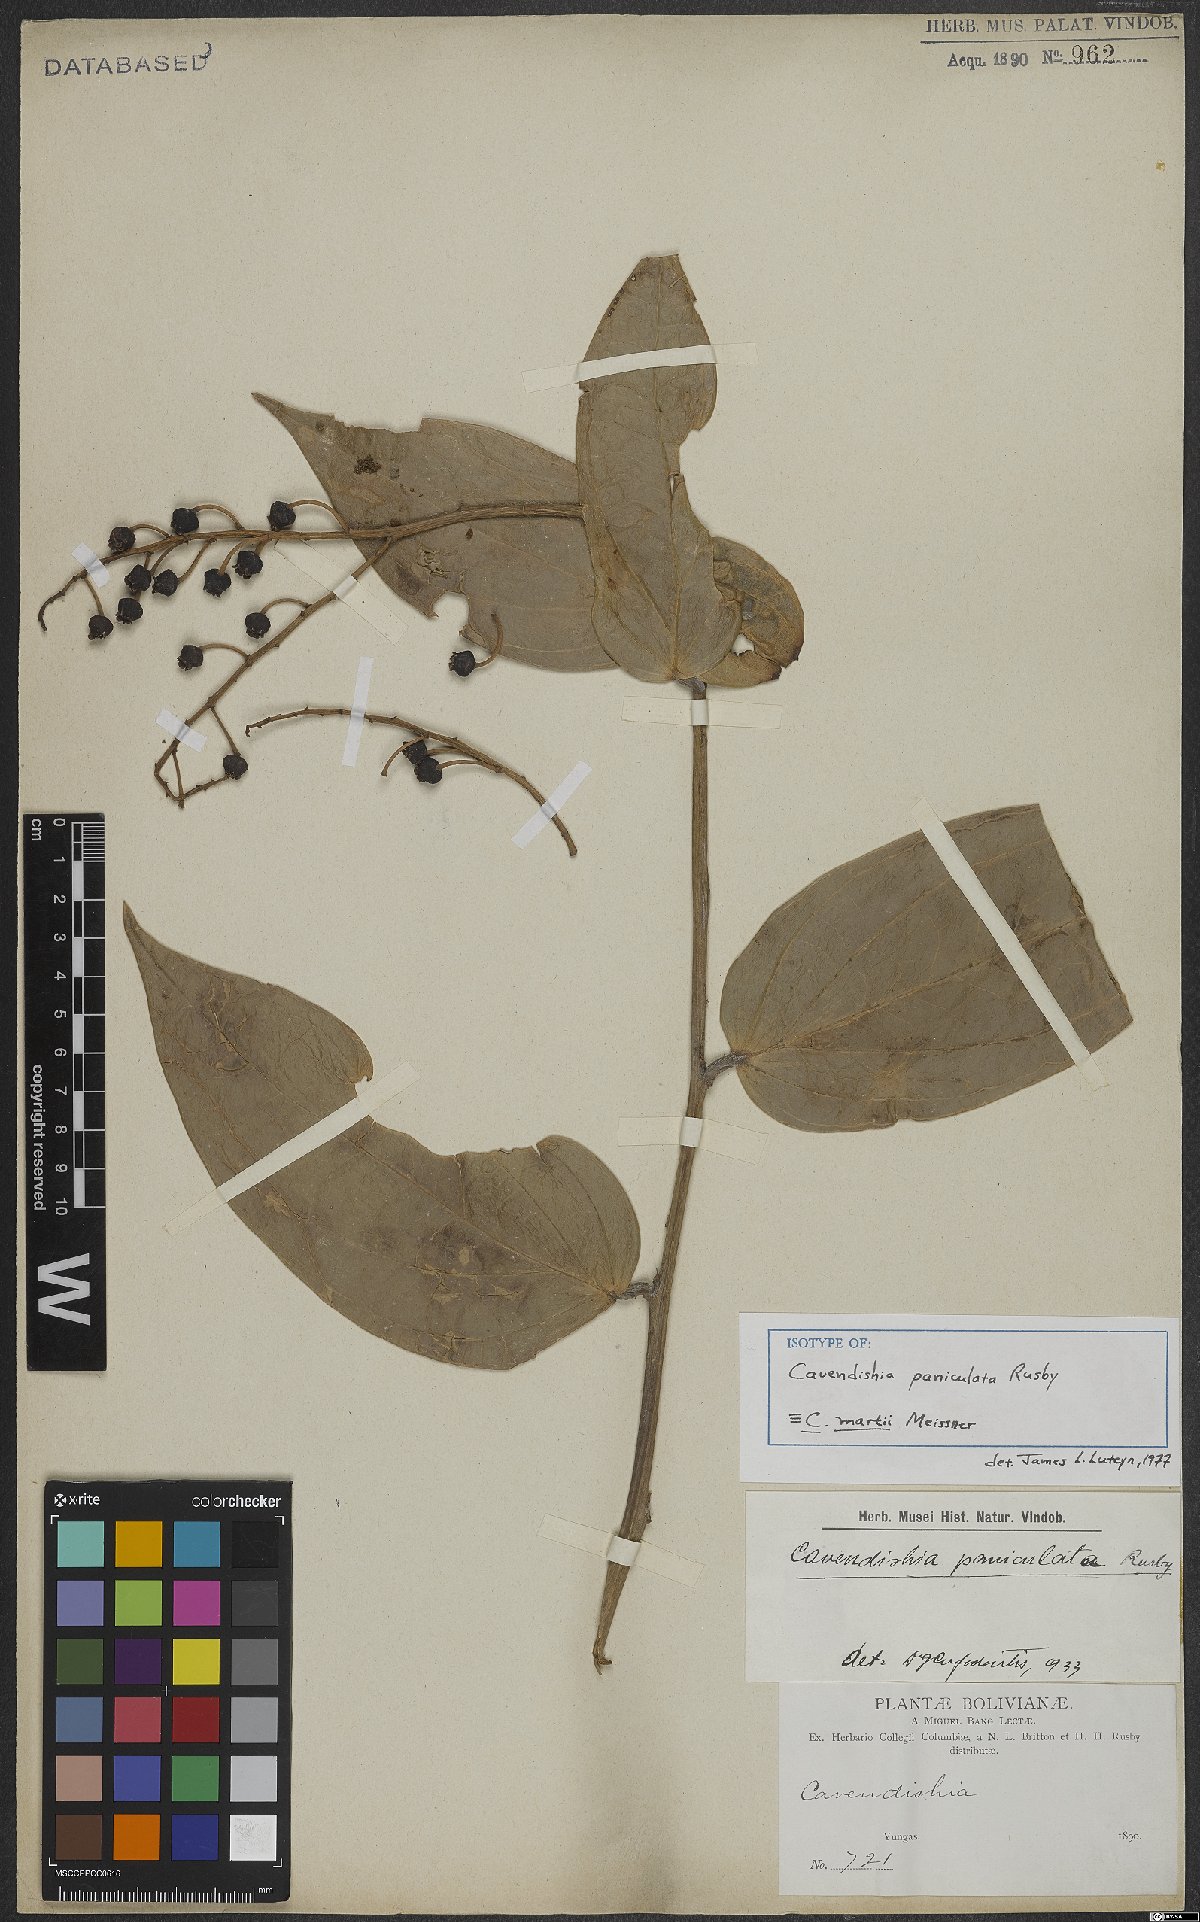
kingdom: Plantae
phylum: Tracheophyta
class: Magnoliopsida
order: Ericales
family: Ericaceae
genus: Cavendishia
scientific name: Cavendishia martii
